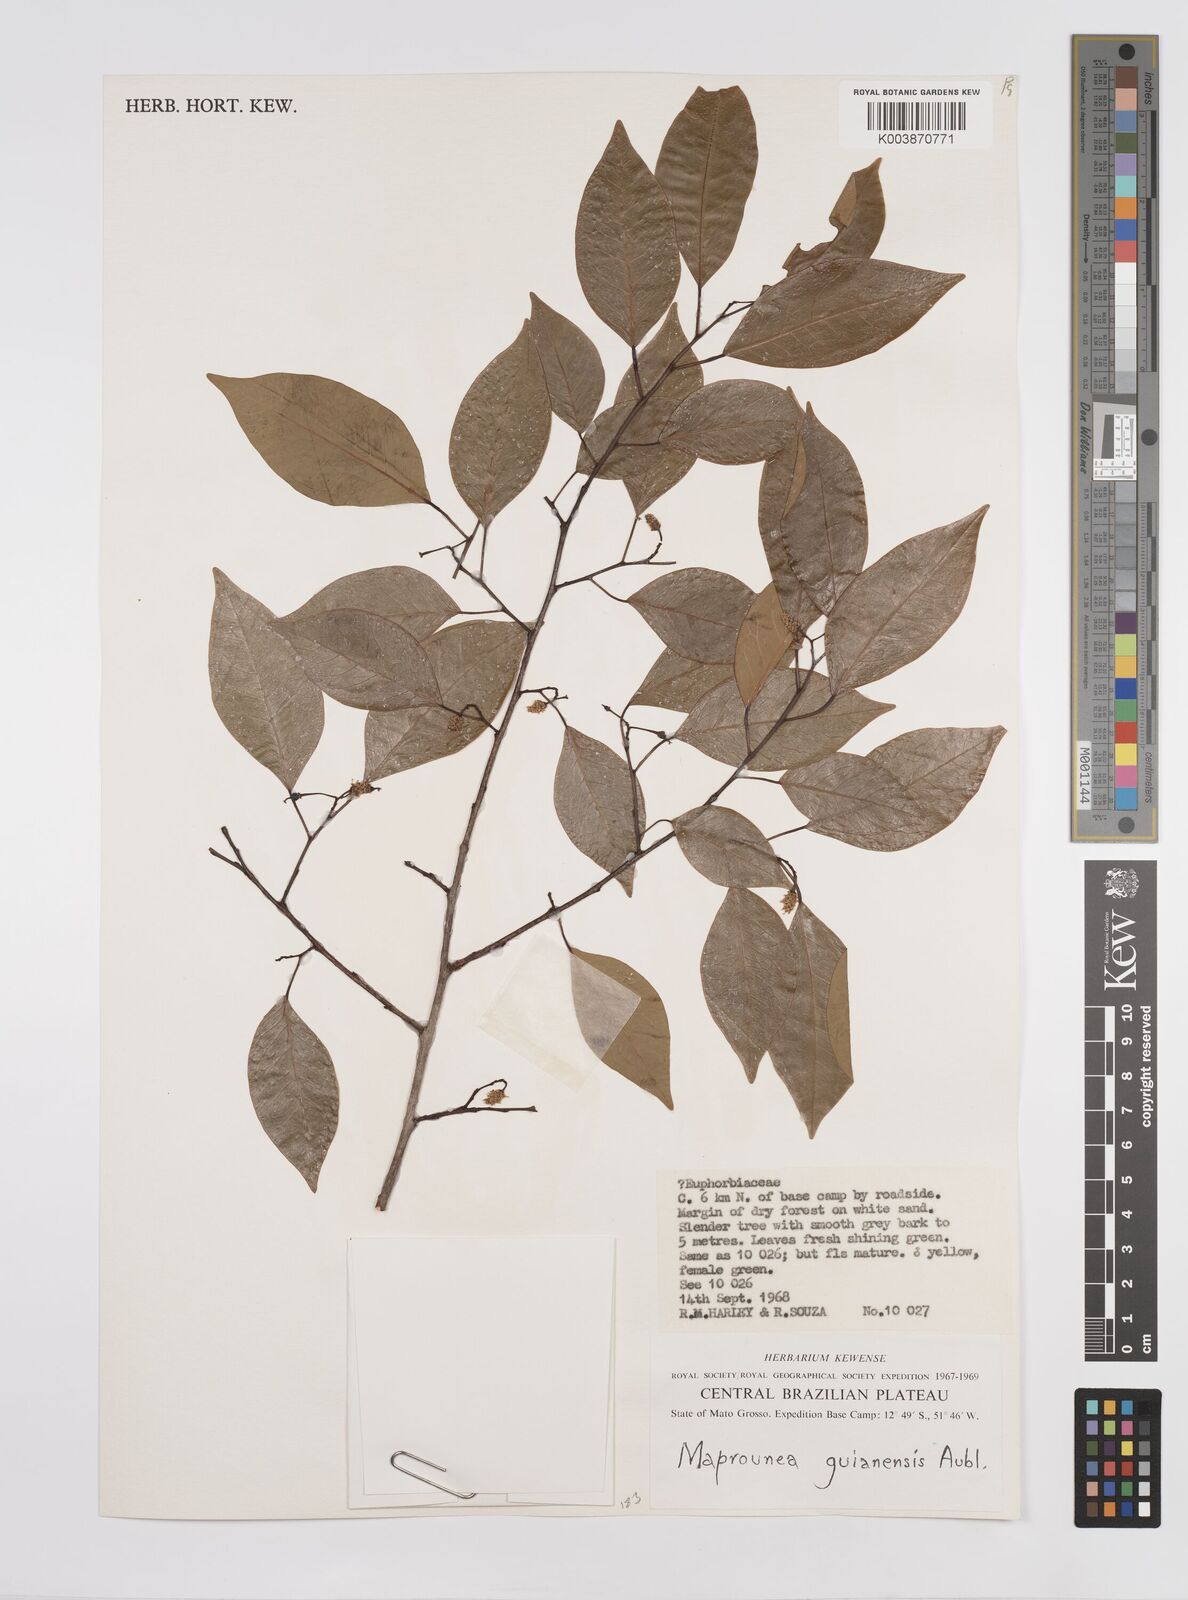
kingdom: Plantae
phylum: Tracheophyta
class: Magnoliopsida
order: Malpighiales
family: Euphorbiaceae
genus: Maprounea
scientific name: Maprounea guianensis
